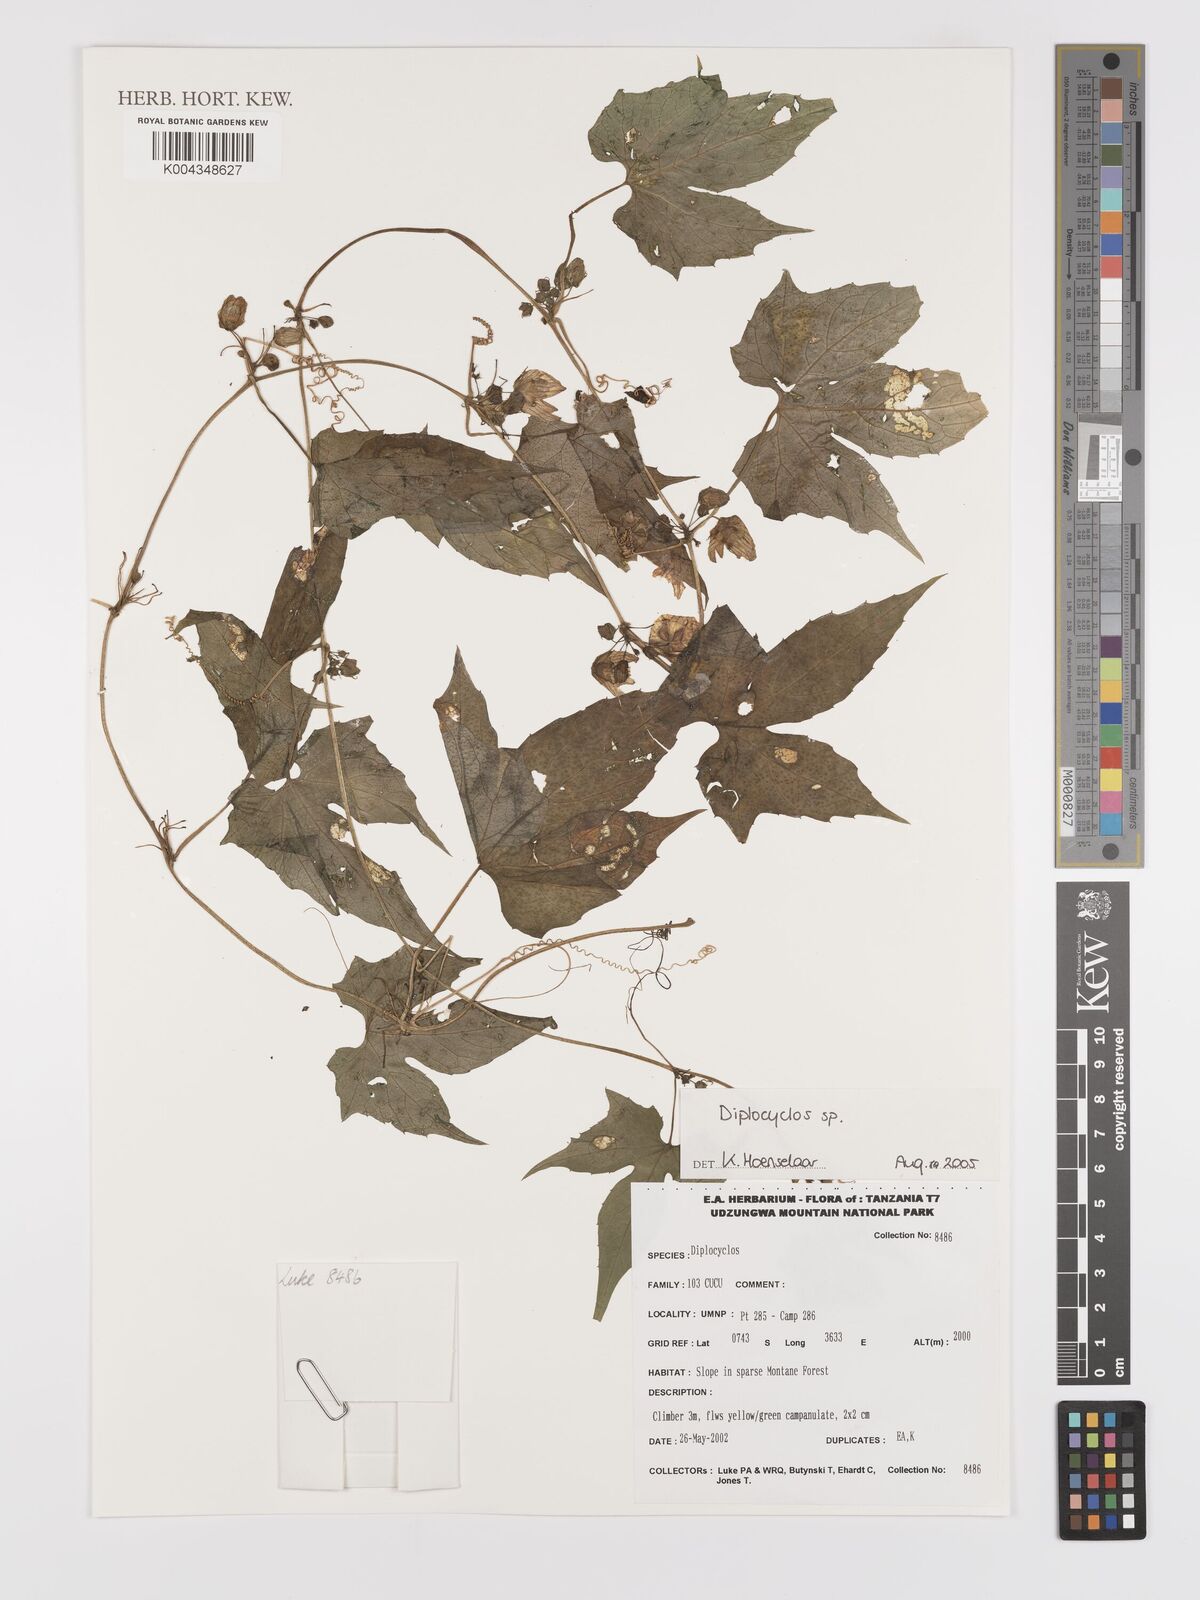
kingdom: Plantae
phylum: Tracheophyta
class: Magnoliopsida
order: Cucurbitales
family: Cucurbitaceae
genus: Diplocyclos
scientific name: Diplocyclos
